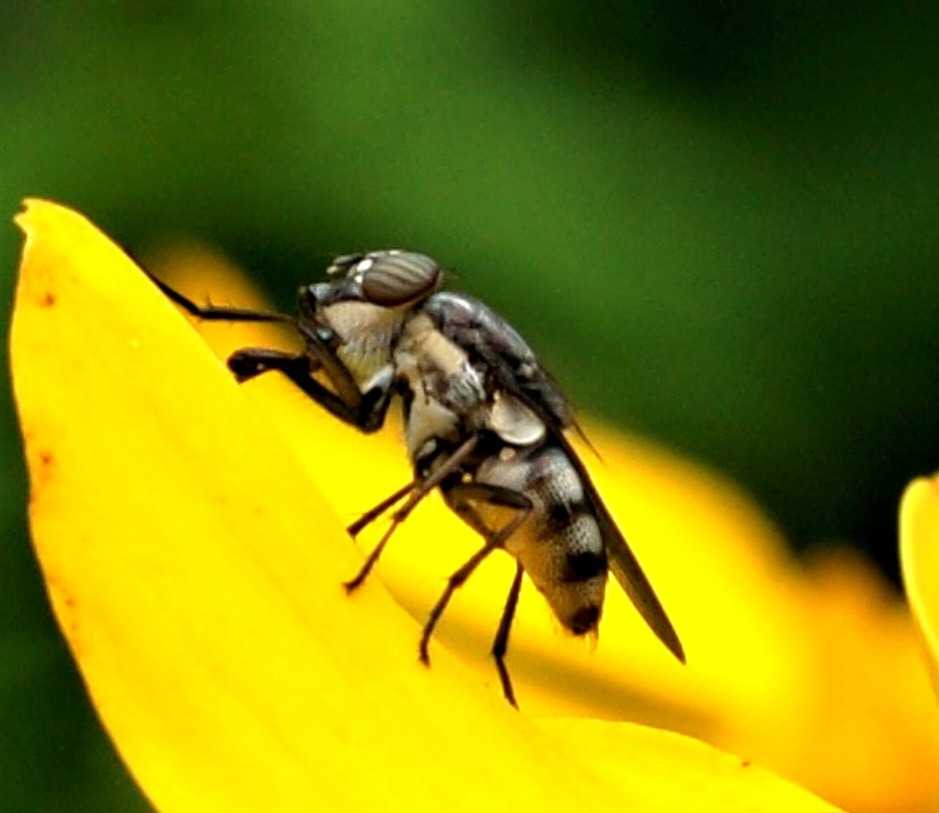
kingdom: Animalia
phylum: Arthropoda
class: Insecta
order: Diptera
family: Calliphoridae
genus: Stomorhina
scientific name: Stomorhina lunata
